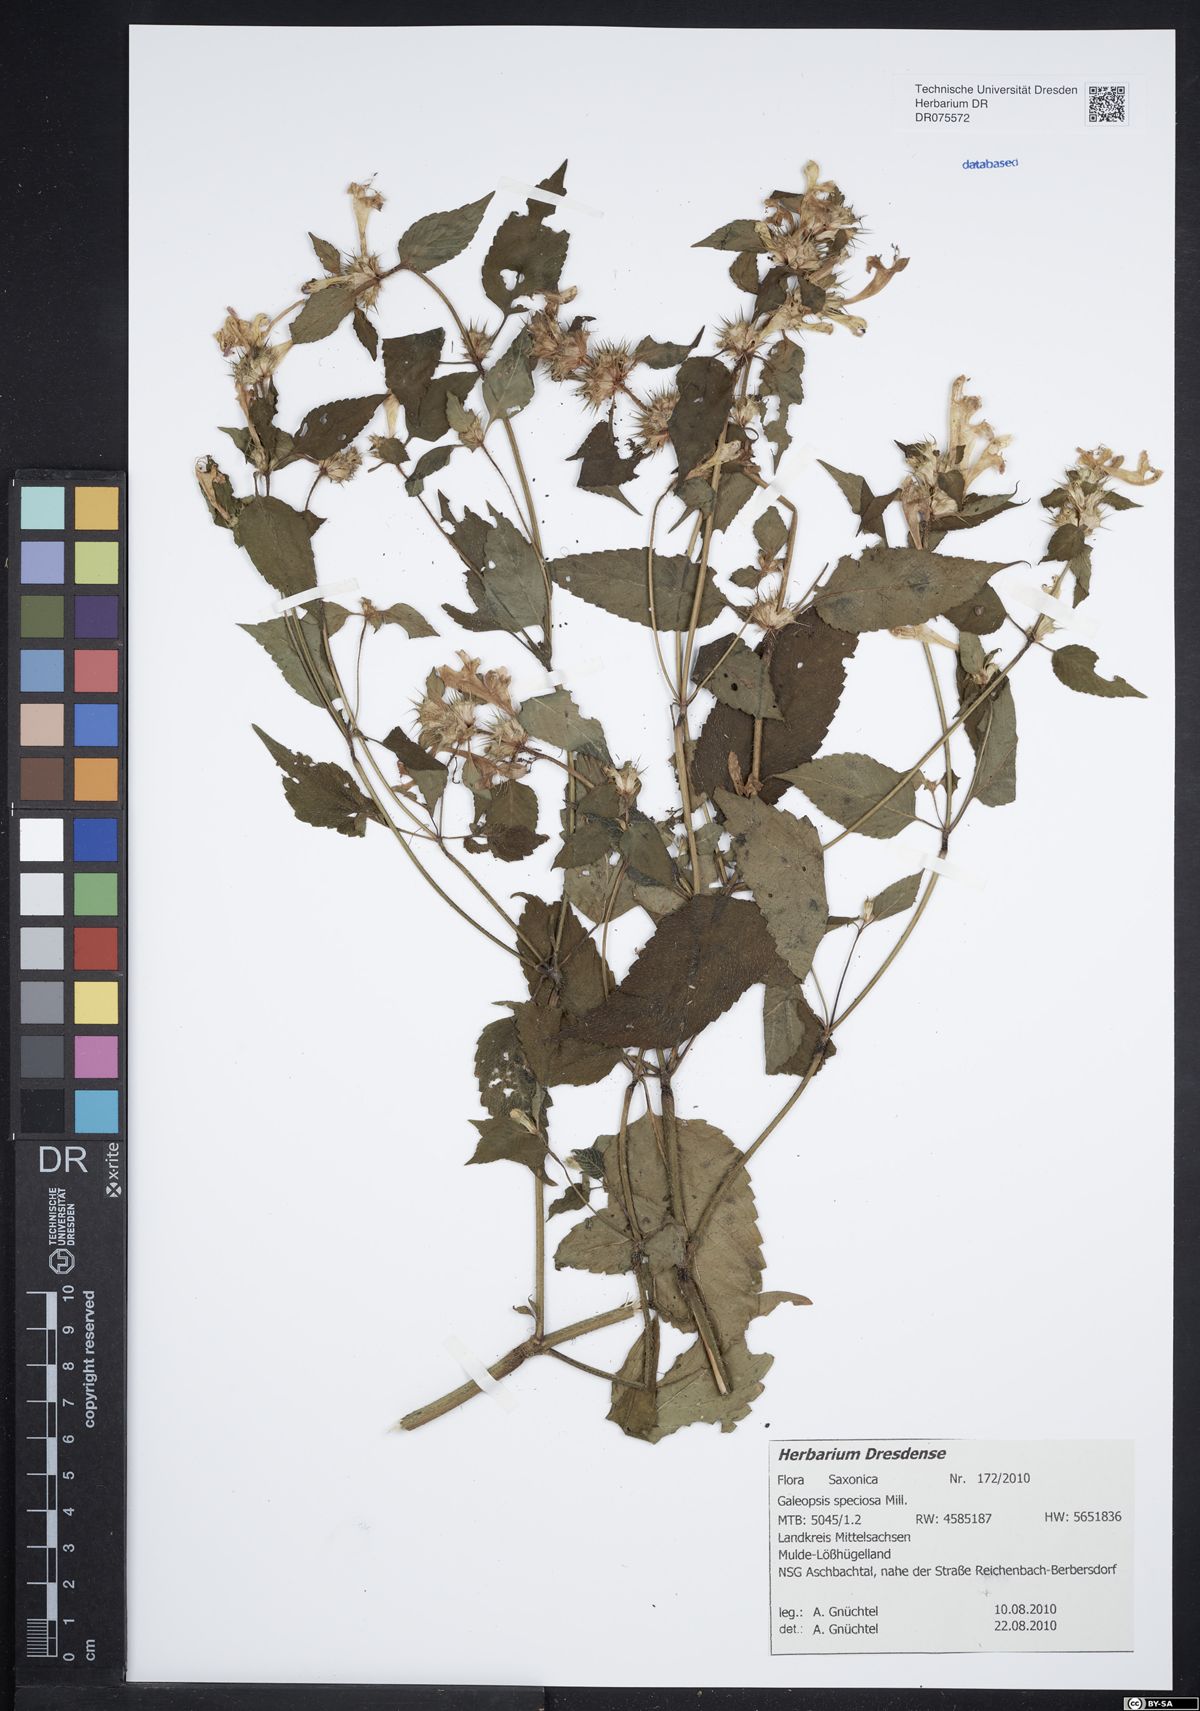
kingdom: Plantae
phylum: Tracheophyta
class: Magnoliopsida
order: Lamiales
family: Lamiaceae
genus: Galeopsis
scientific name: Galeopsis speciosa
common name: Large-flowered hemp-nettle
